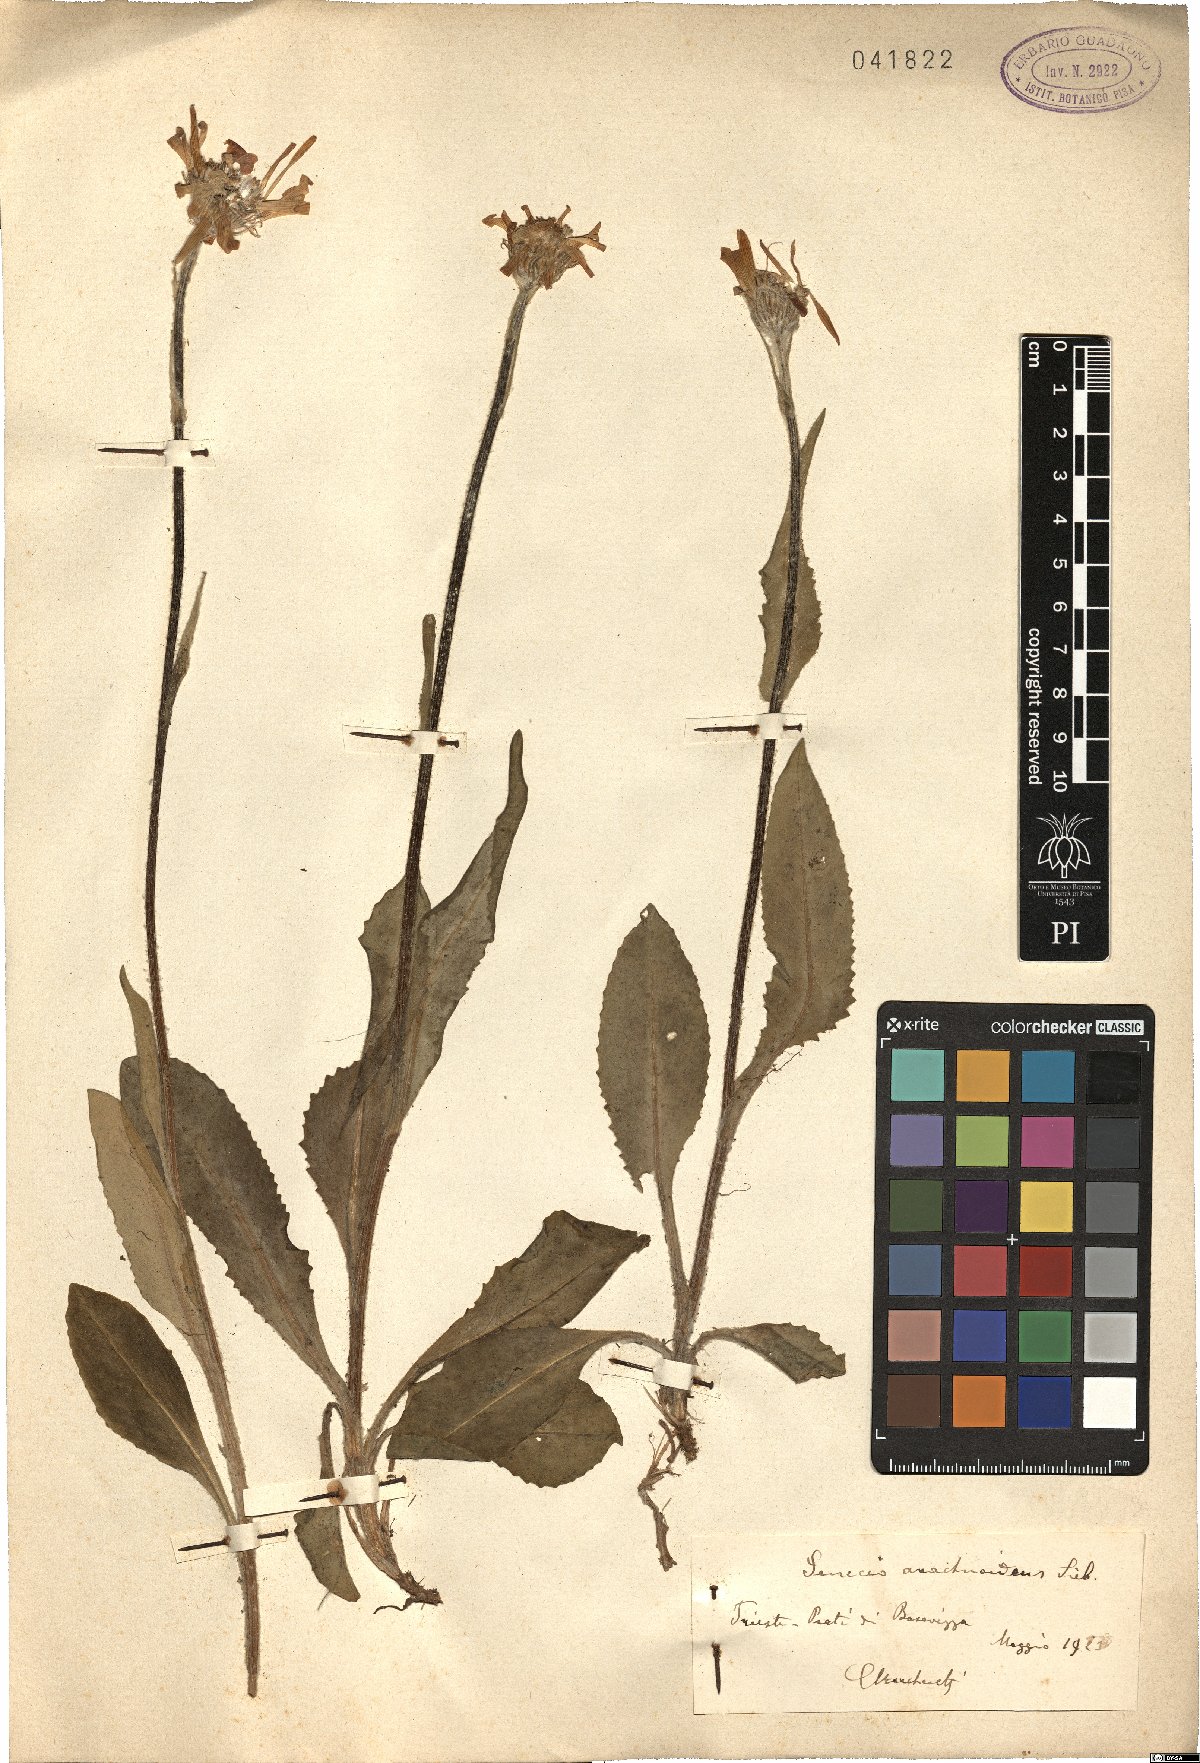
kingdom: Plantae
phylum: Tracheophyta
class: Magnoliopsida
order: Asterales
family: Asteraceae
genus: Senecio
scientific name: Senecio arachnanthus
